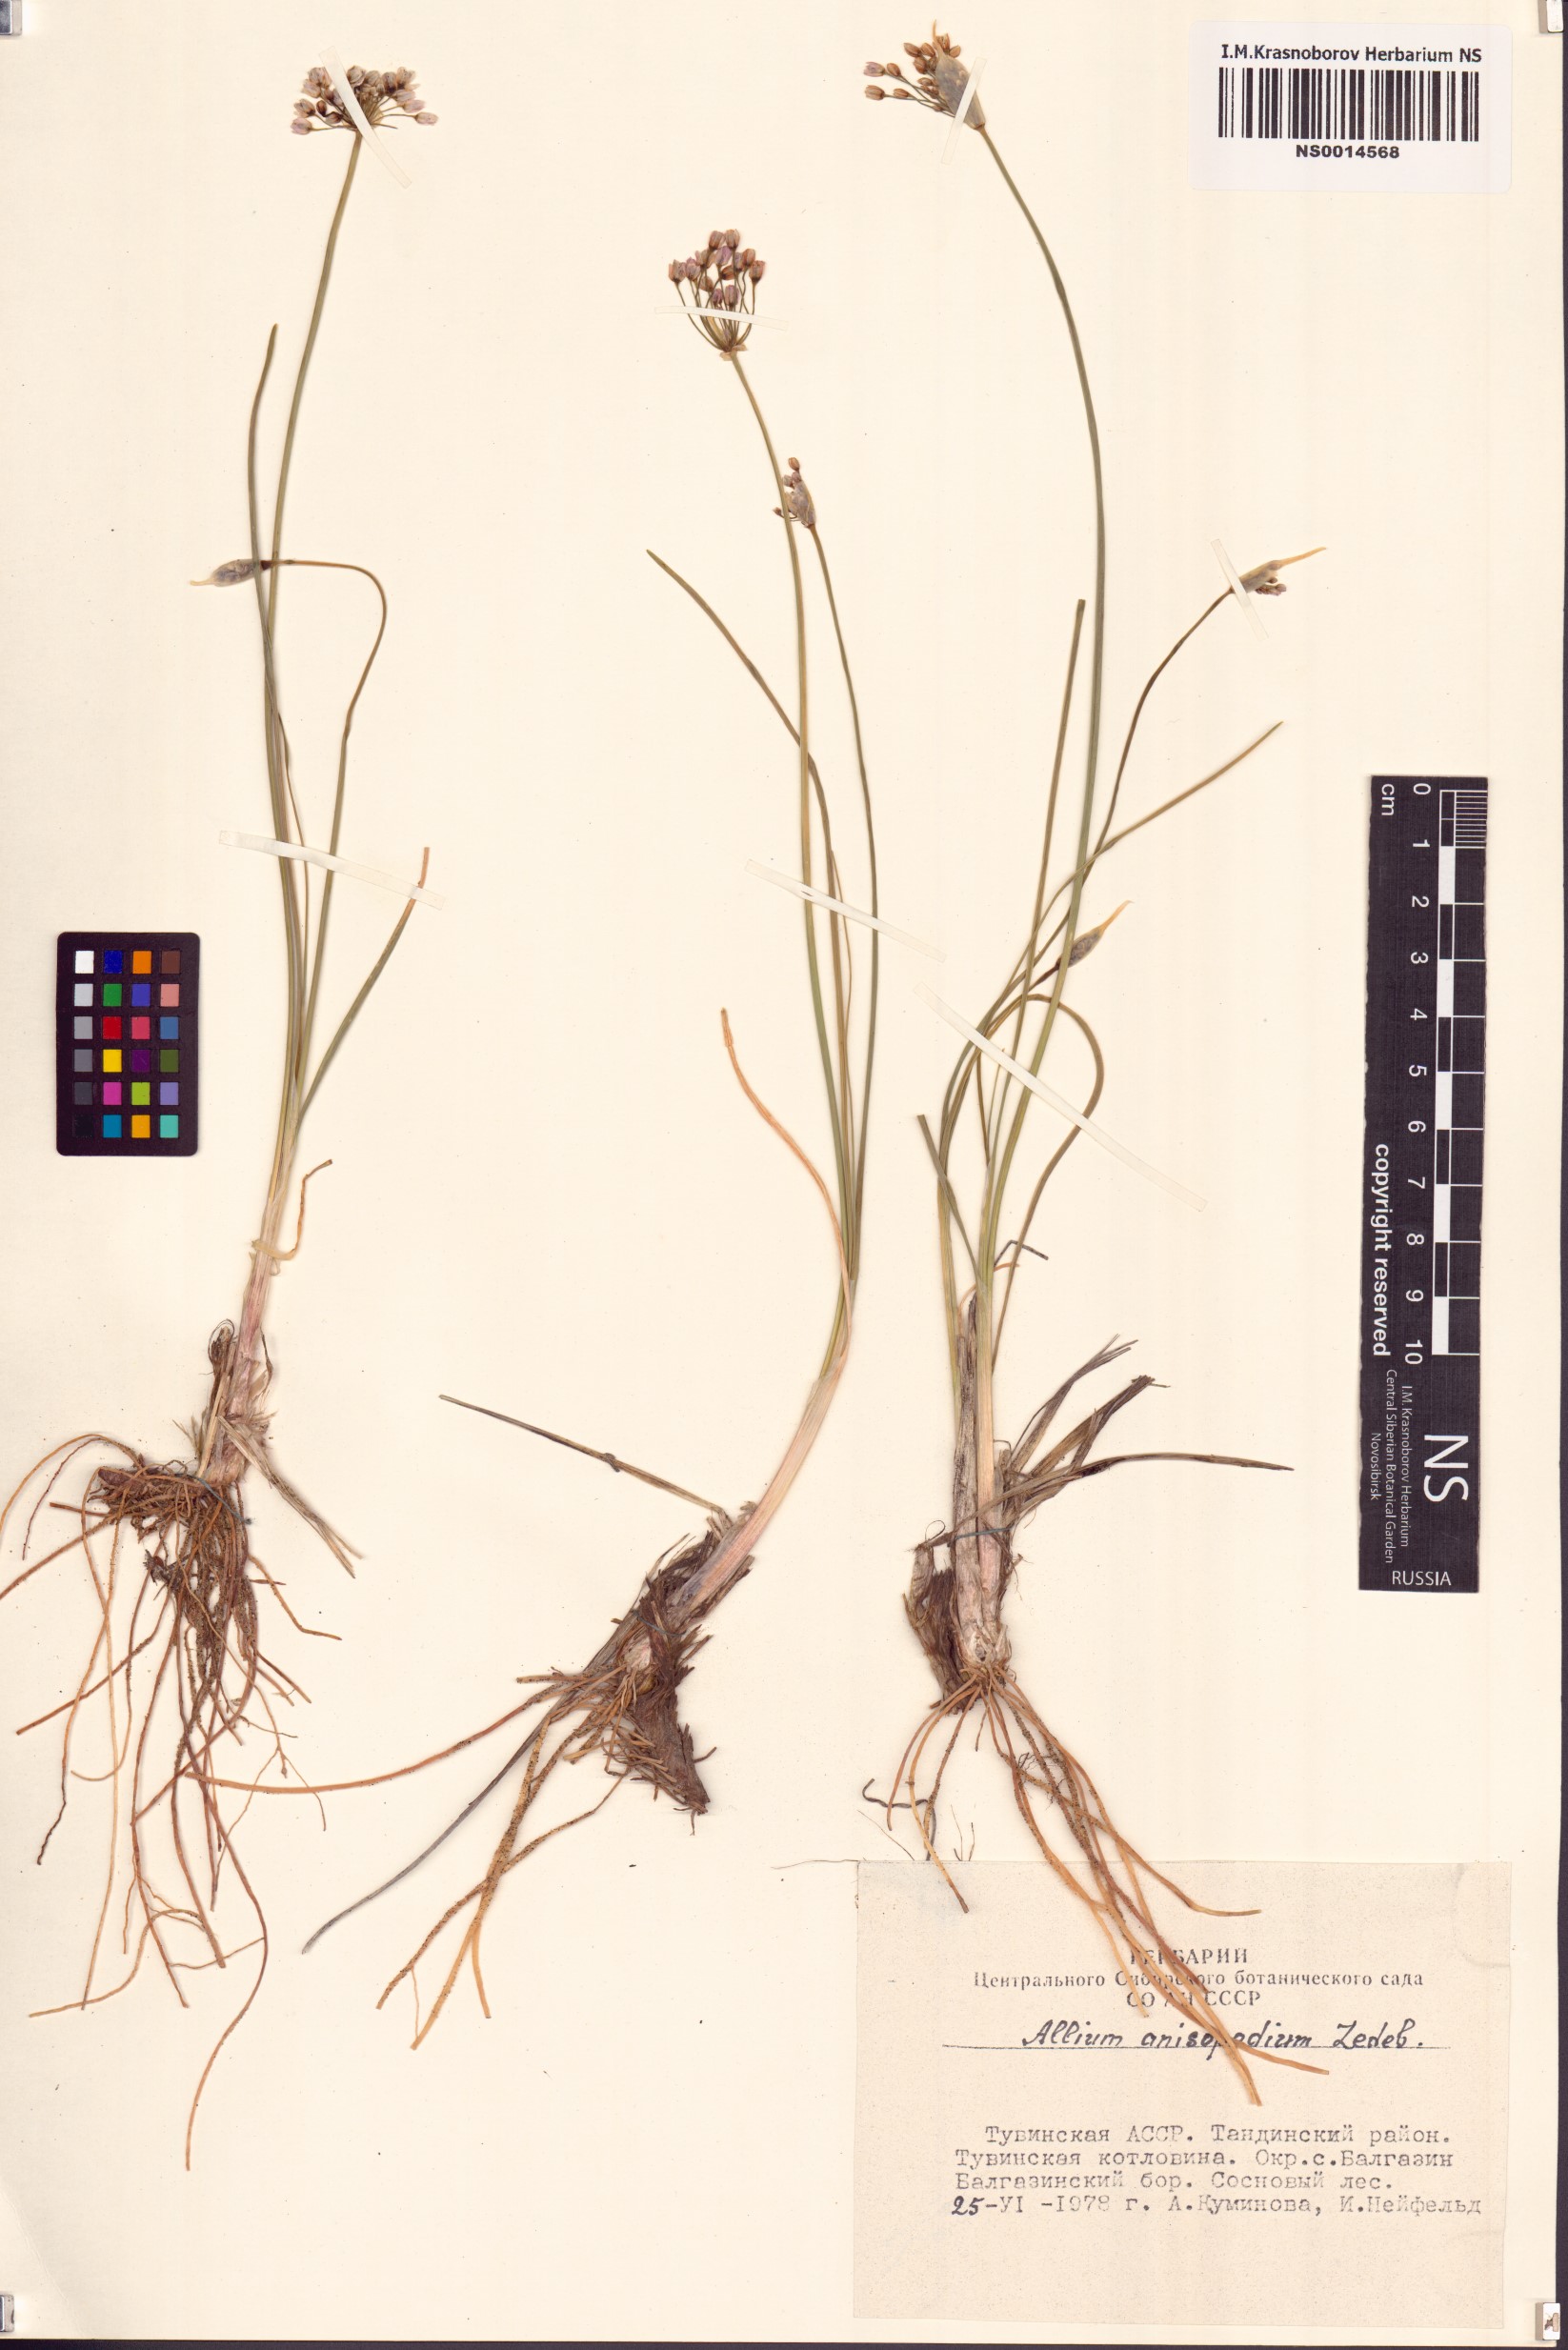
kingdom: Plantae
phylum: Tracheophyta
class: Liliopsida
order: Asparagales
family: Amaryllidaceae
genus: Allium
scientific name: Allium anisopodium
